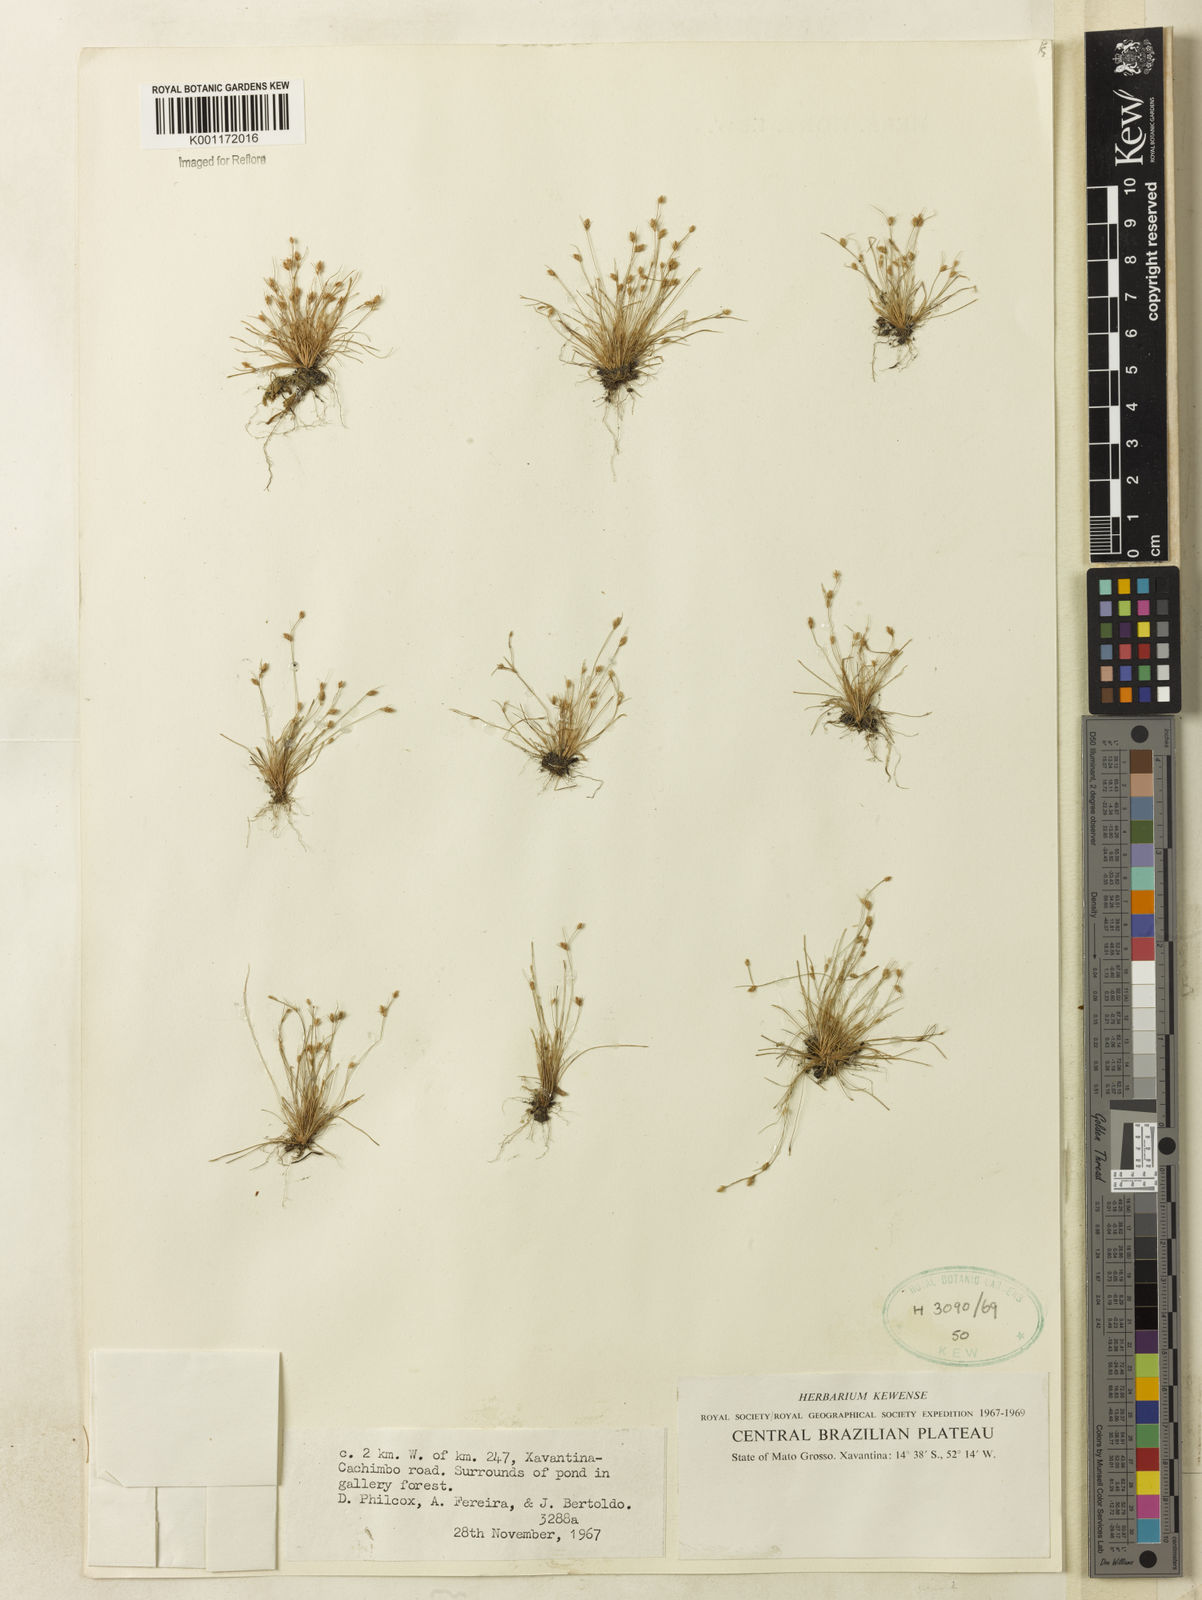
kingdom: Plantae
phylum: Tracheophyta
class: Liliopsida
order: Poales
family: Cyperaceae
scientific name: Cyperaceae
